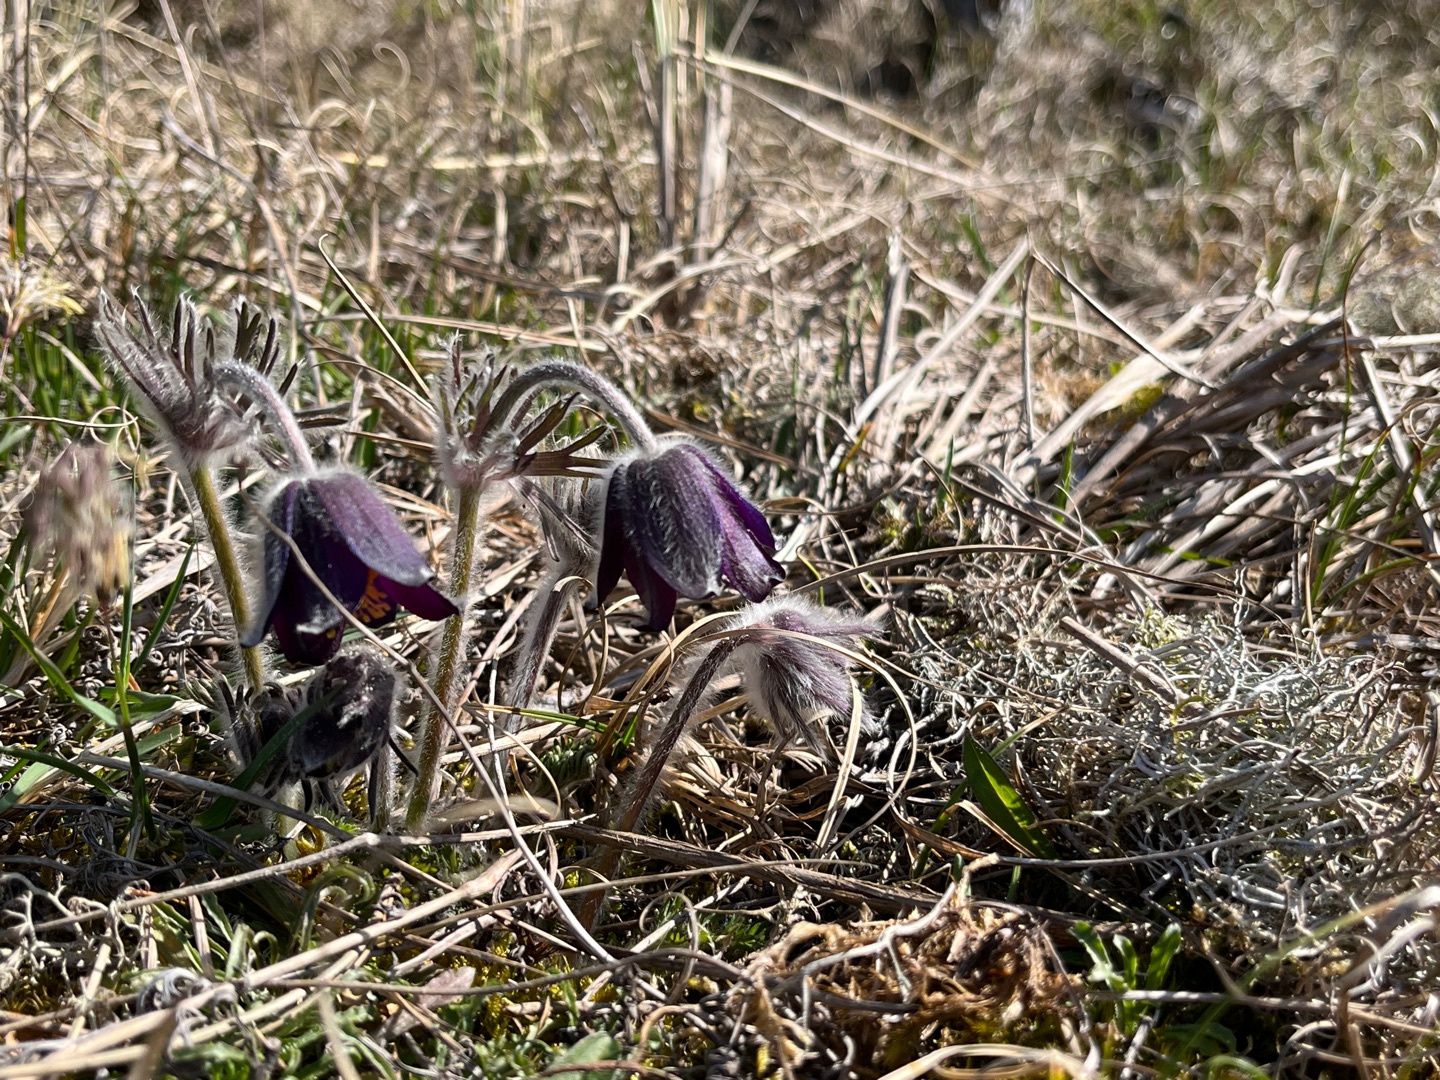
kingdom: Plantae
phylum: Tracheophyta
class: Magnoliopsida
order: Ranunculales
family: Ranunculaceae
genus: Pulsatilla
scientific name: Pulsatilla pratensis
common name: Nikkende kobjælde
